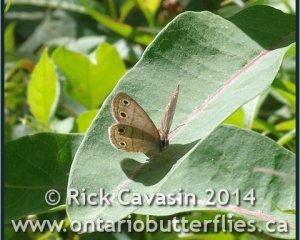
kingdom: Animalia
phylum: Arthropoda
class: Insecta
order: Lepidoptera
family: Nymphalidae
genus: Euptychia
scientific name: Euptychia cymela
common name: Little Wood Satyr
